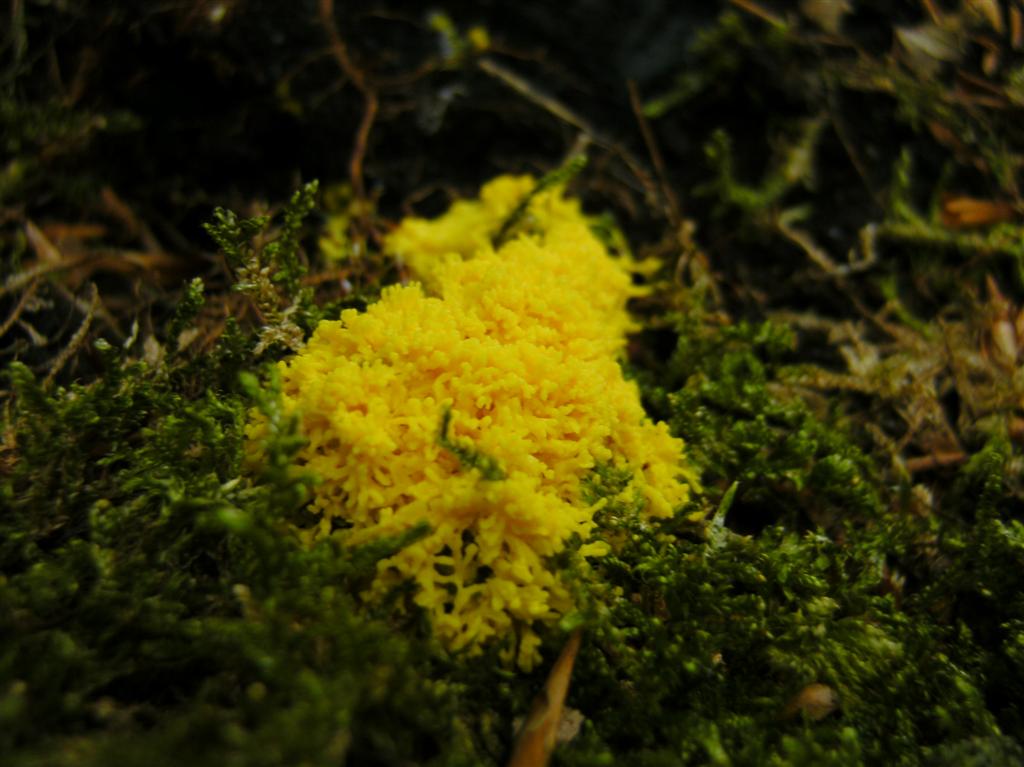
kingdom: Protozoa
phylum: Mycetozoa
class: Myxomycetes
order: Physarales
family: Physaraceae
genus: Fuligo
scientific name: Fuligo septica
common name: gul troldsmør
